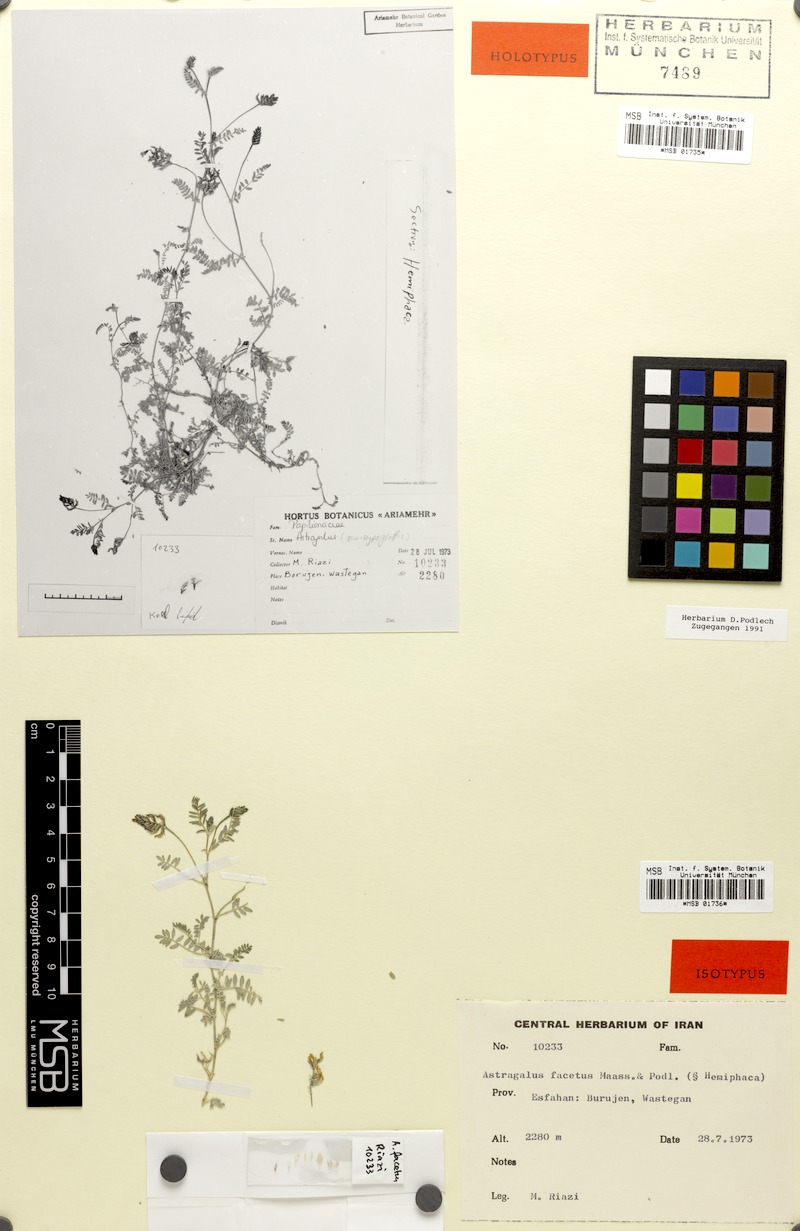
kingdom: Plantae
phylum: Tracheophyta
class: Magnoliopsida
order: Fabales
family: Fabaceae
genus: Astragalus
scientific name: Astragalus facetus
